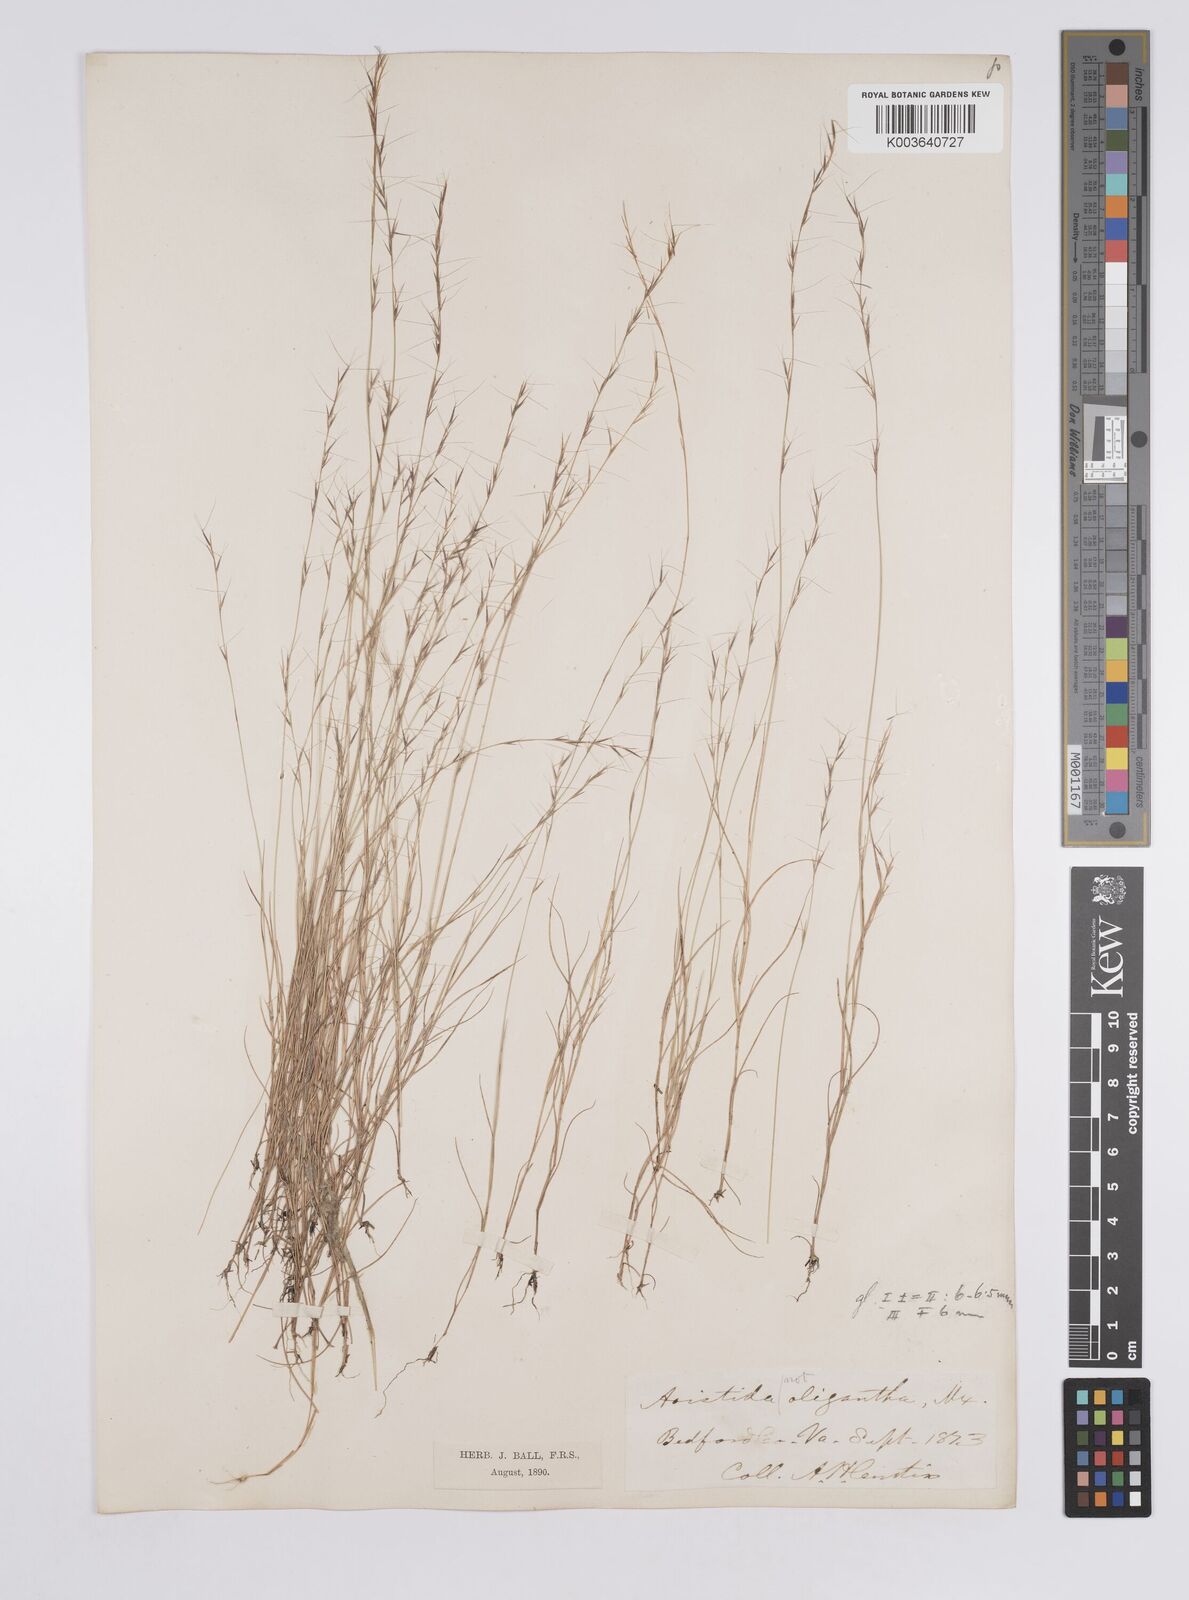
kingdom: Plantae
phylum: Tracheophyta
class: Liliopsida
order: Poales
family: Poaceae
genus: Aristida
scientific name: Aristida longespica
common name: Long-spiked triple-awned grass
